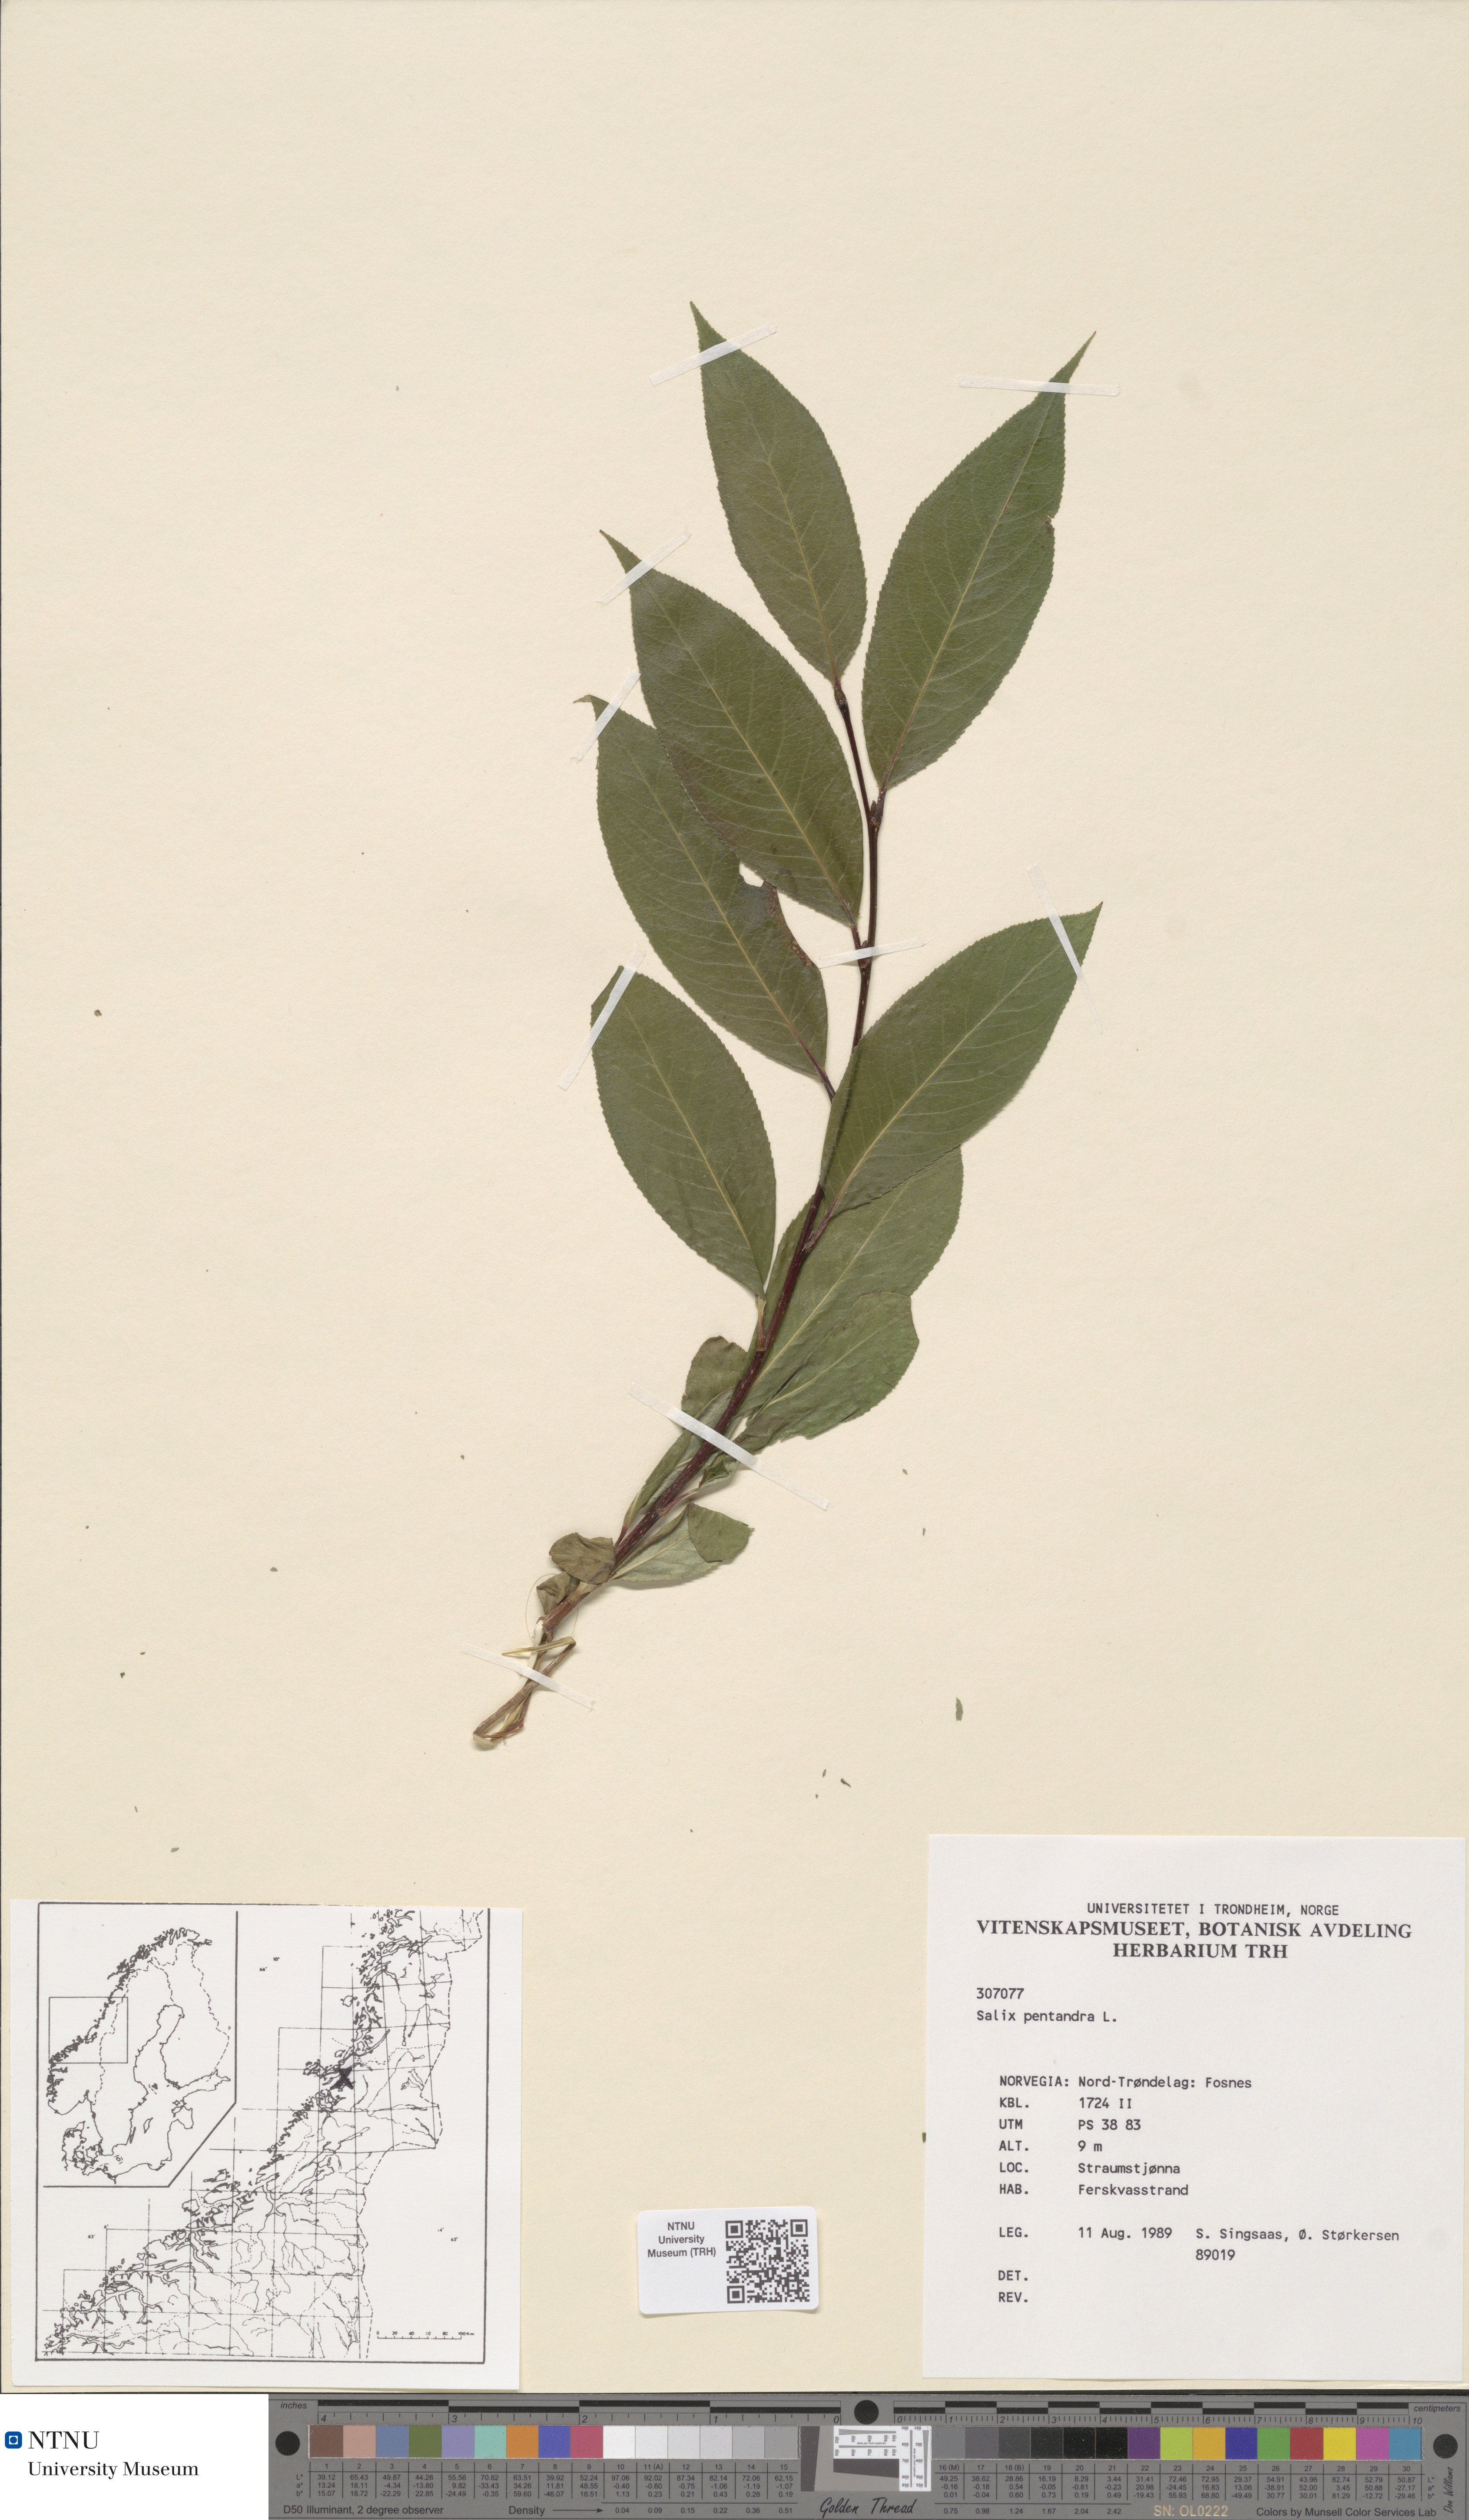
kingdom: Plantae
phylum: Tracheophyta
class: Magnoliopsida
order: Malpighiales
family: Salicaceae
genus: Salix
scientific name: Salix pentandra
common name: Bay willow
